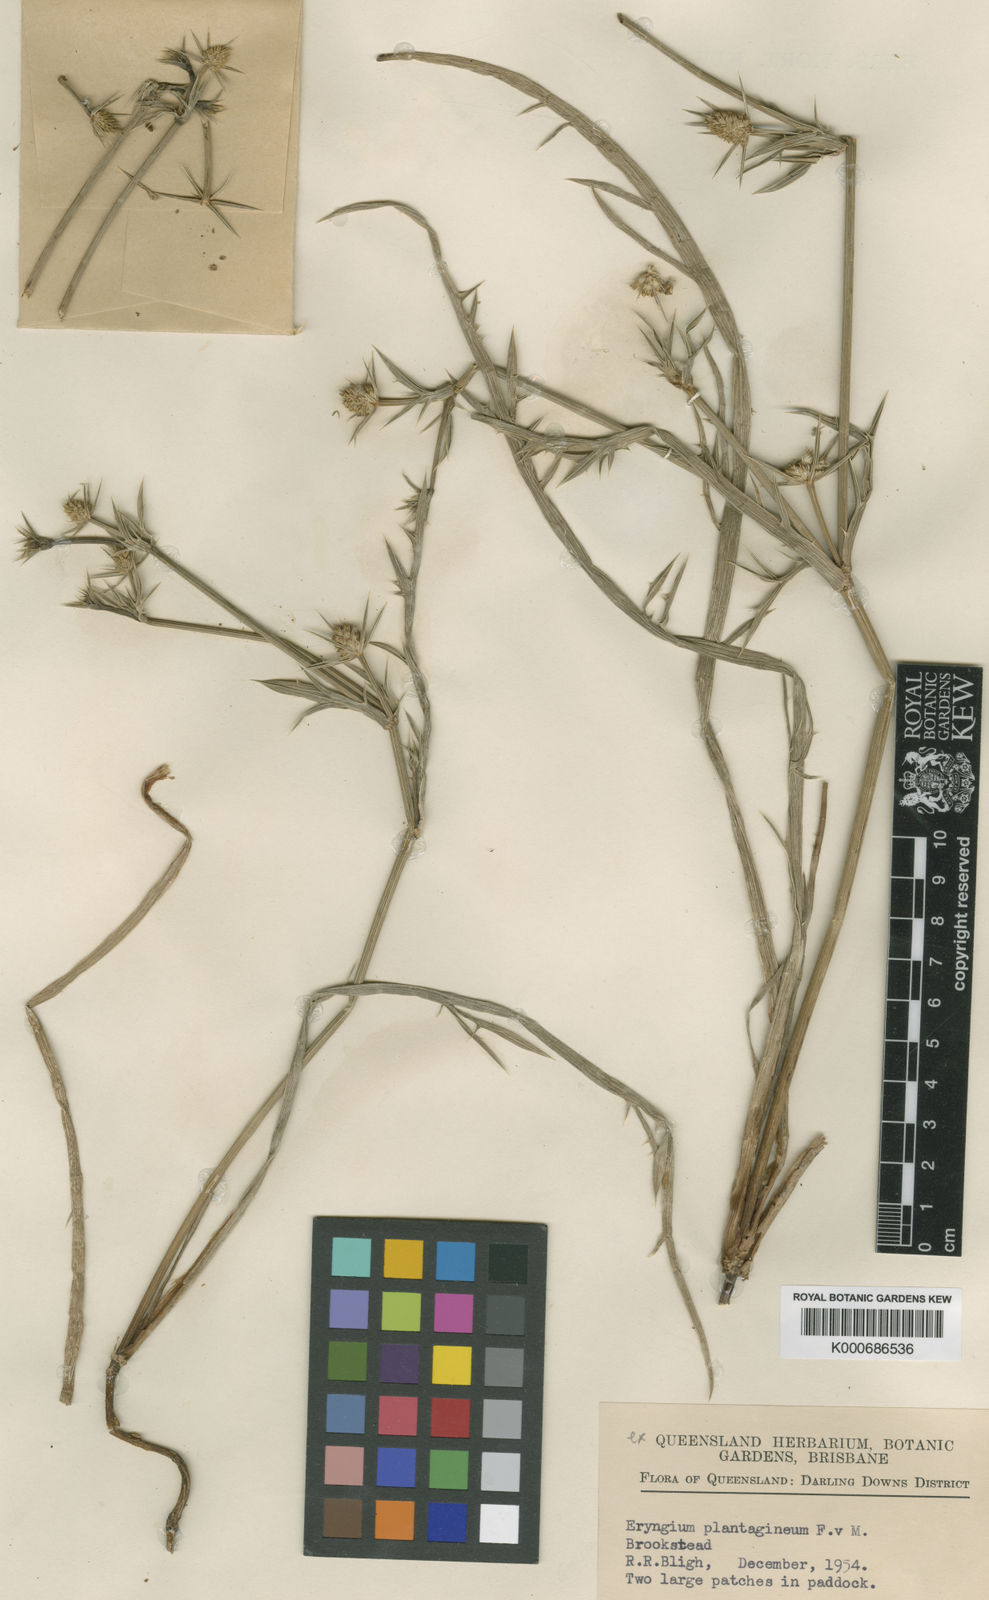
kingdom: Plantae
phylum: Tracheophyta
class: Magnoliopsida
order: Apiales
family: Apiaceae
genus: Eryngium
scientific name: Eryngium plantagineum
